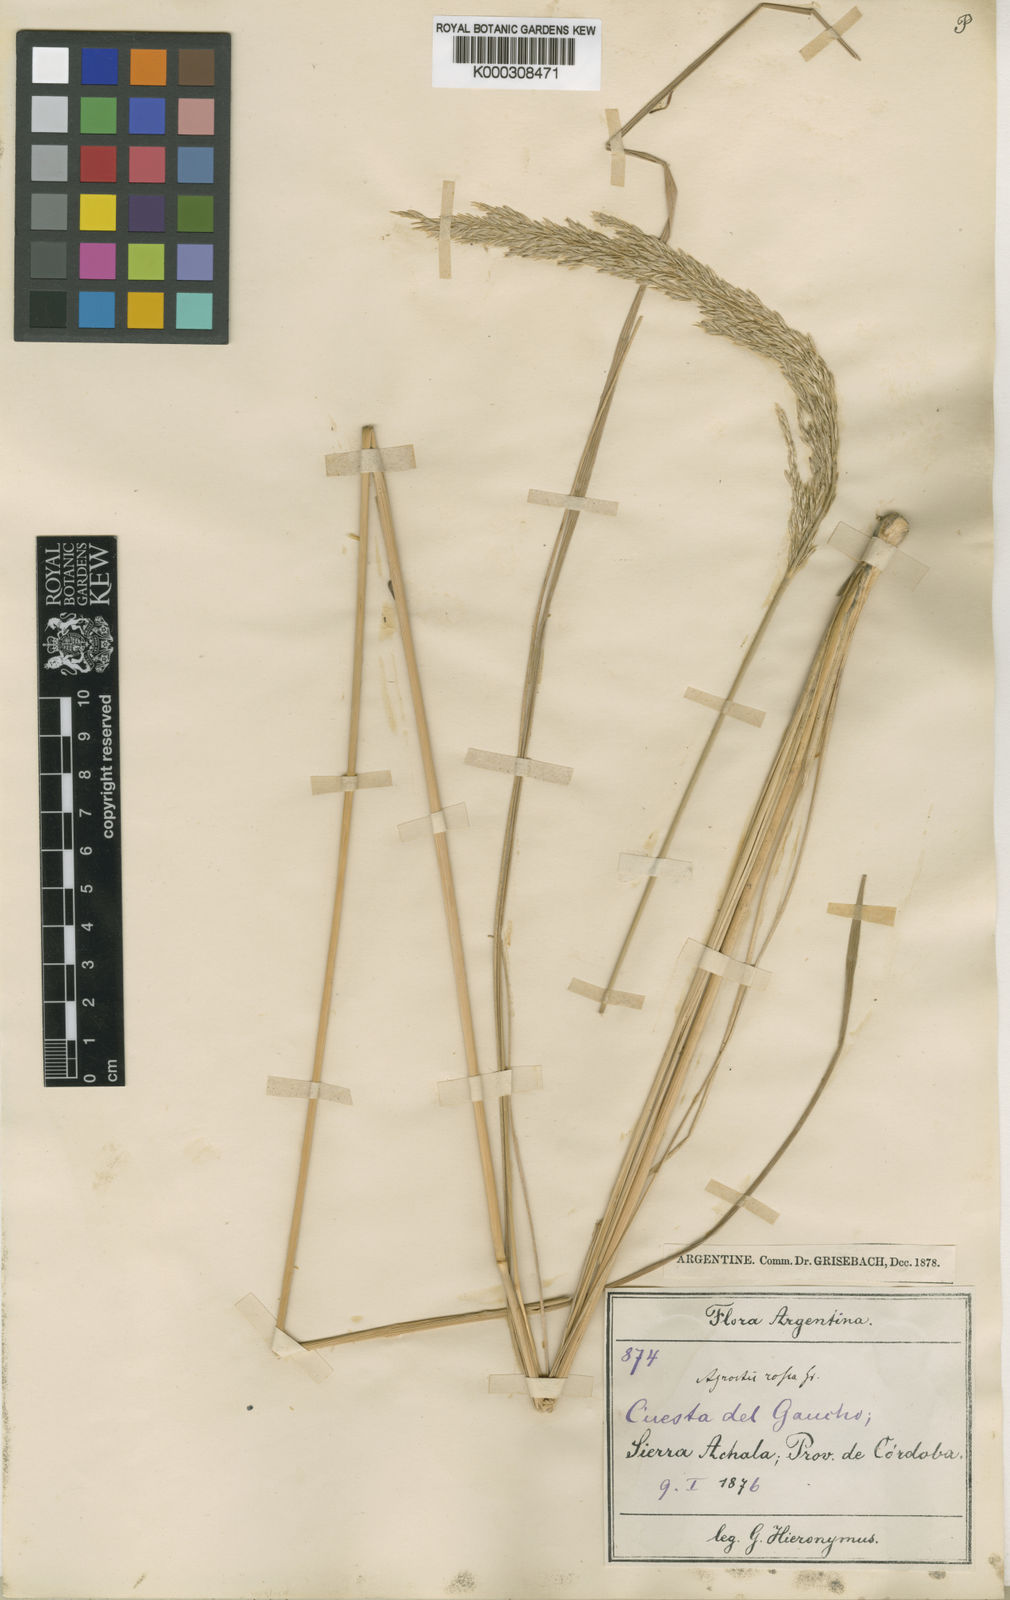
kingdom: Plantae
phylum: Tracheophyta
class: Liliopsida
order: Poales
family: Poaceae
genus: Calamagrostis
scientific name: Calamagrostis
